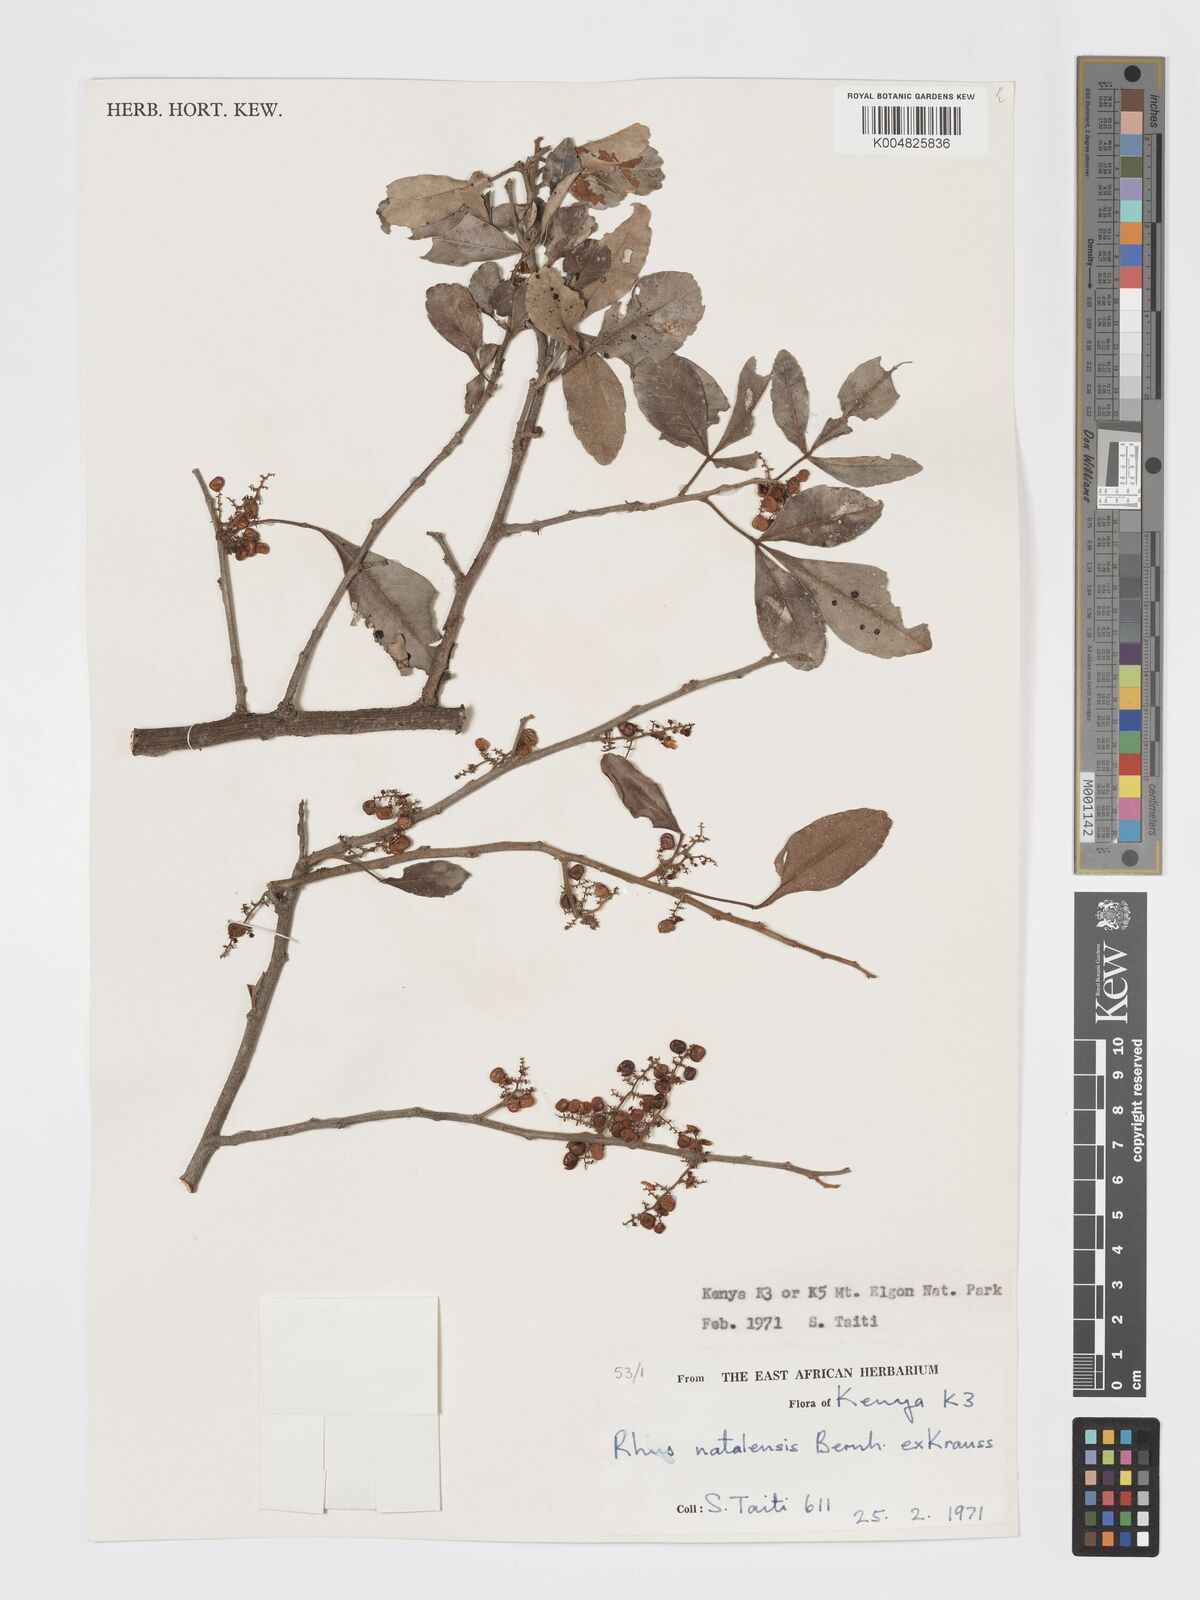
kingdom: Plantae
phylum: Tracheophyta
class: Magnoliopsida
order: Sapindales
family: Anacardiaceae
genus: Searsia
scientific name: Searsia natalensis
